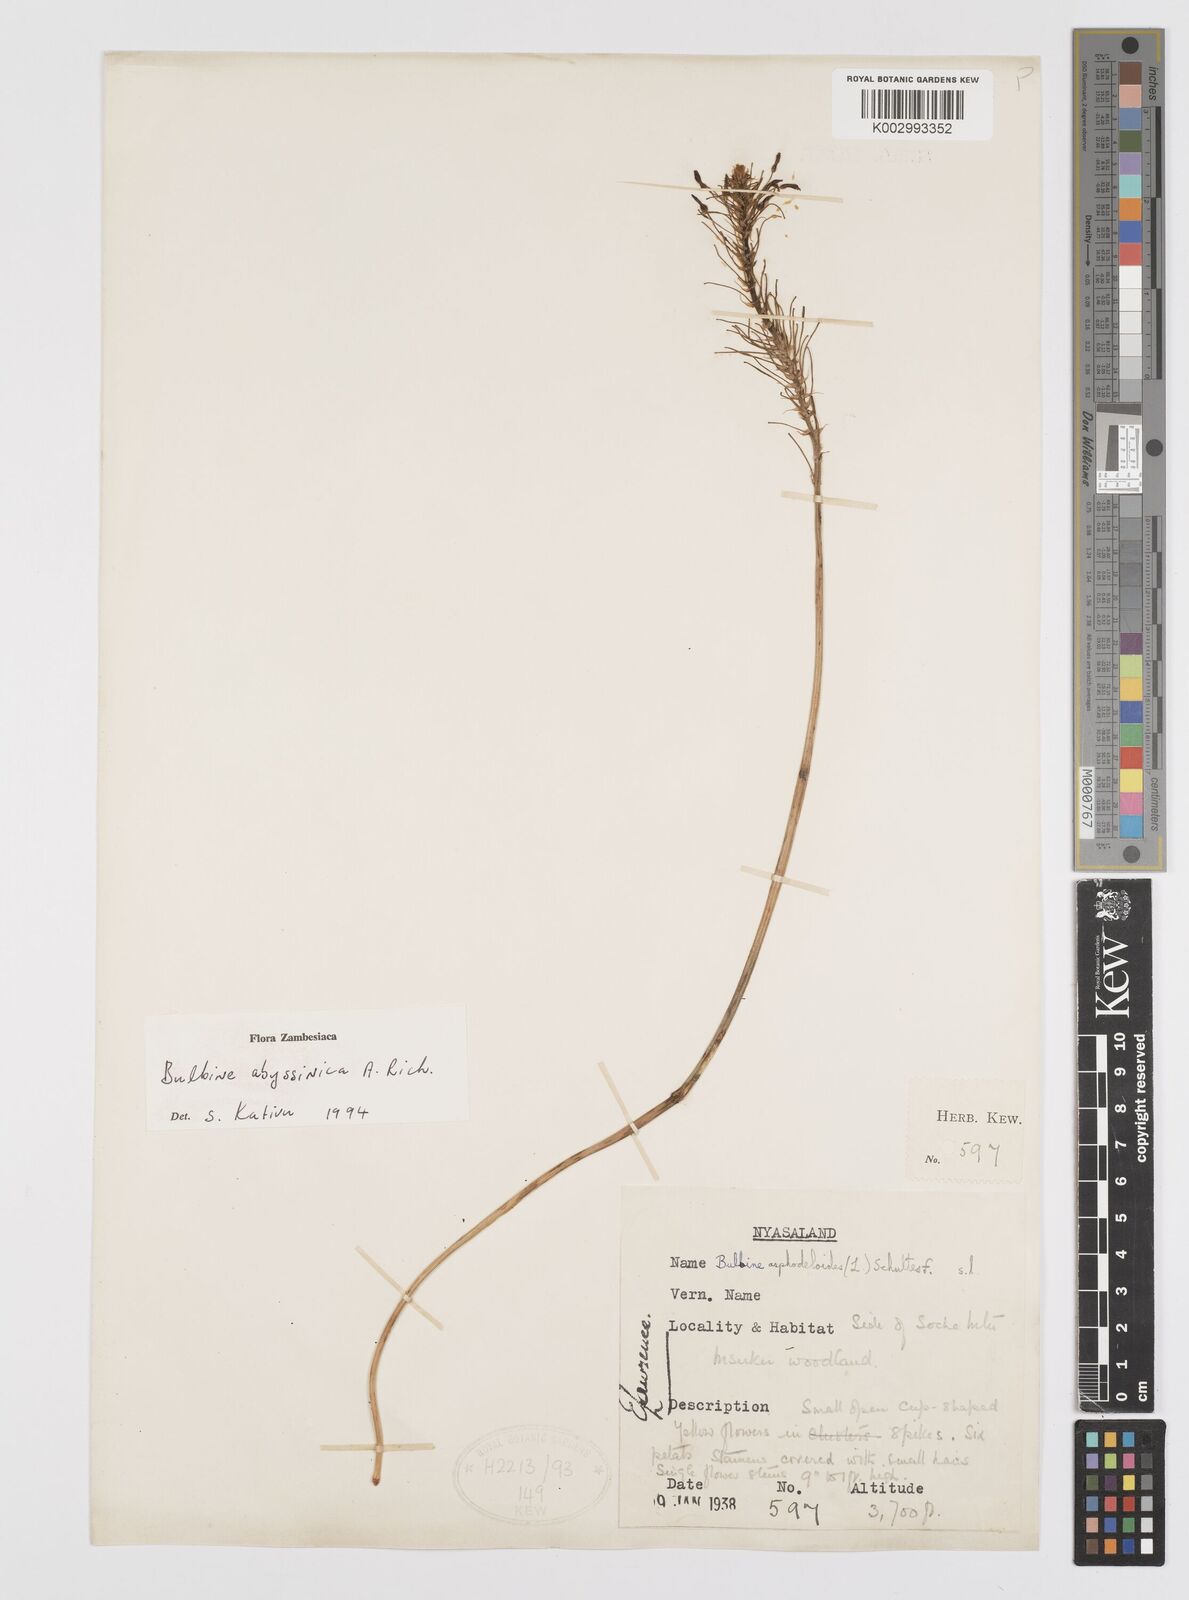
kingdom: Plantae
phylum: Tracheophyta
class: Liliopsida
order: Asparagales
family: Asphodelaceae
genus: Bulbine
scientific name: Bulbine abyssinica
